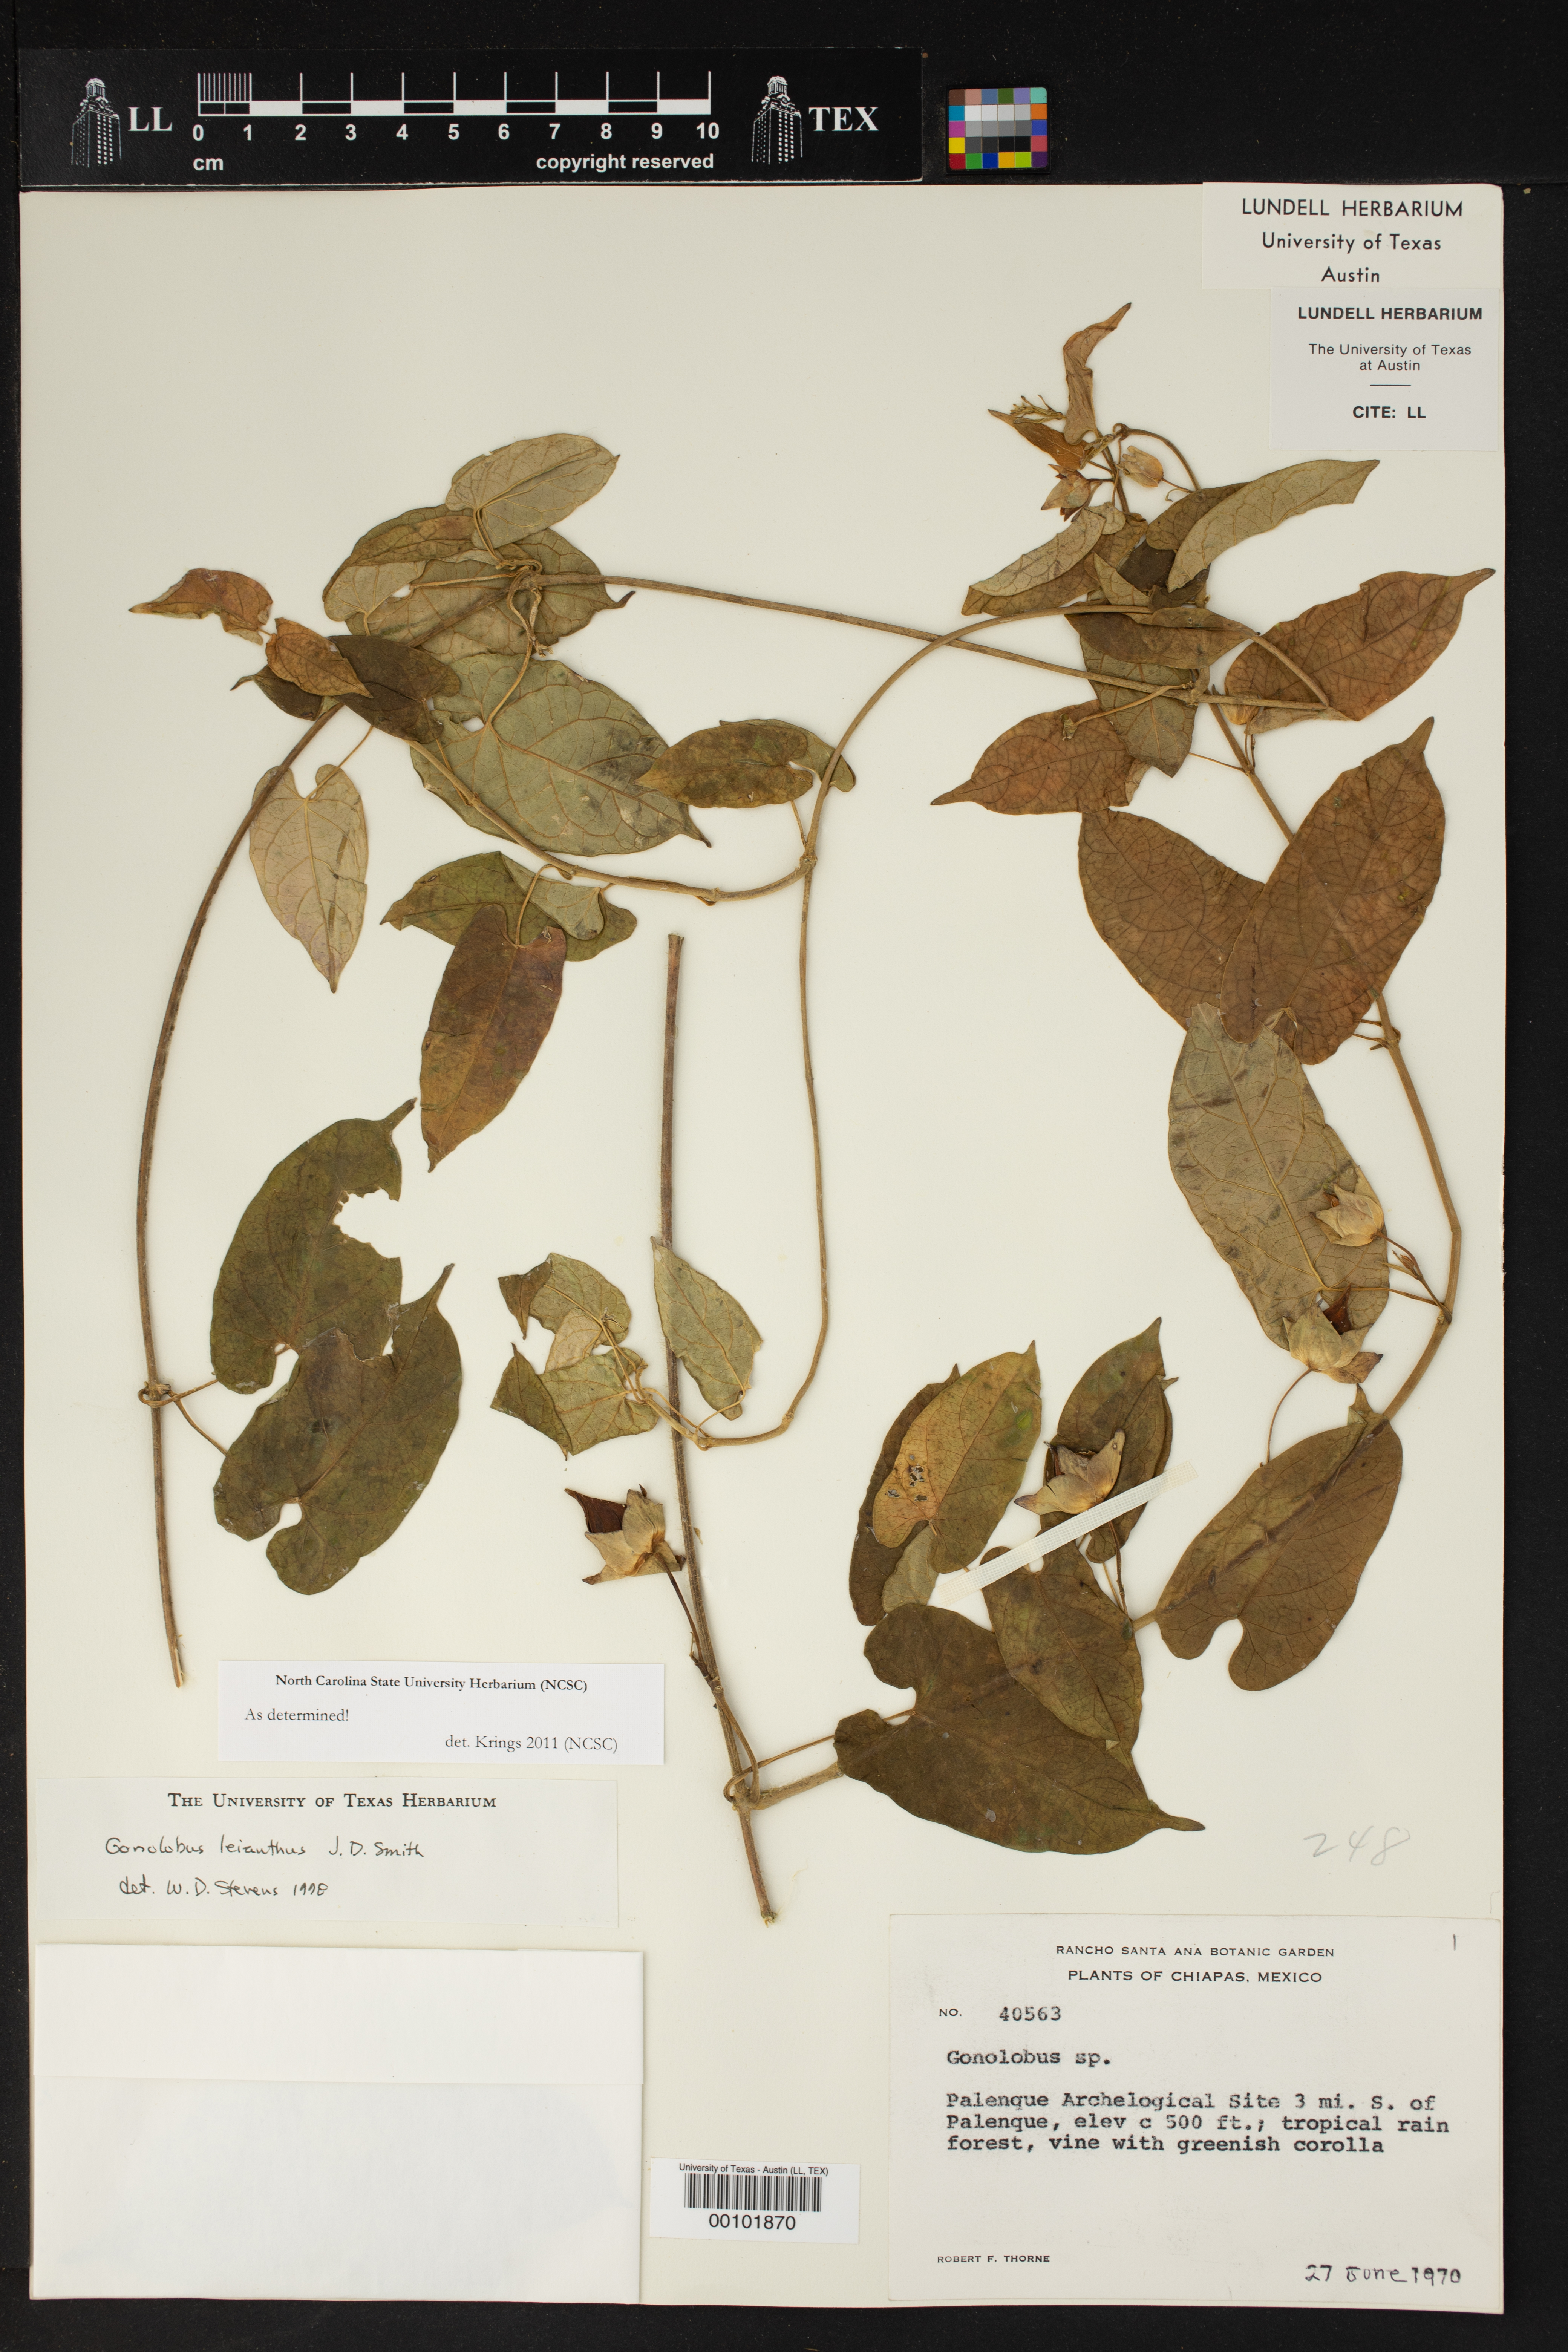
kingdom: Plantae
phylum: Tracheophyta
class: Magnoliopsida
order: Gentianales
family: Apocynaceae
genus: Gonolobus
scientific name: Gonolobus leianthus
